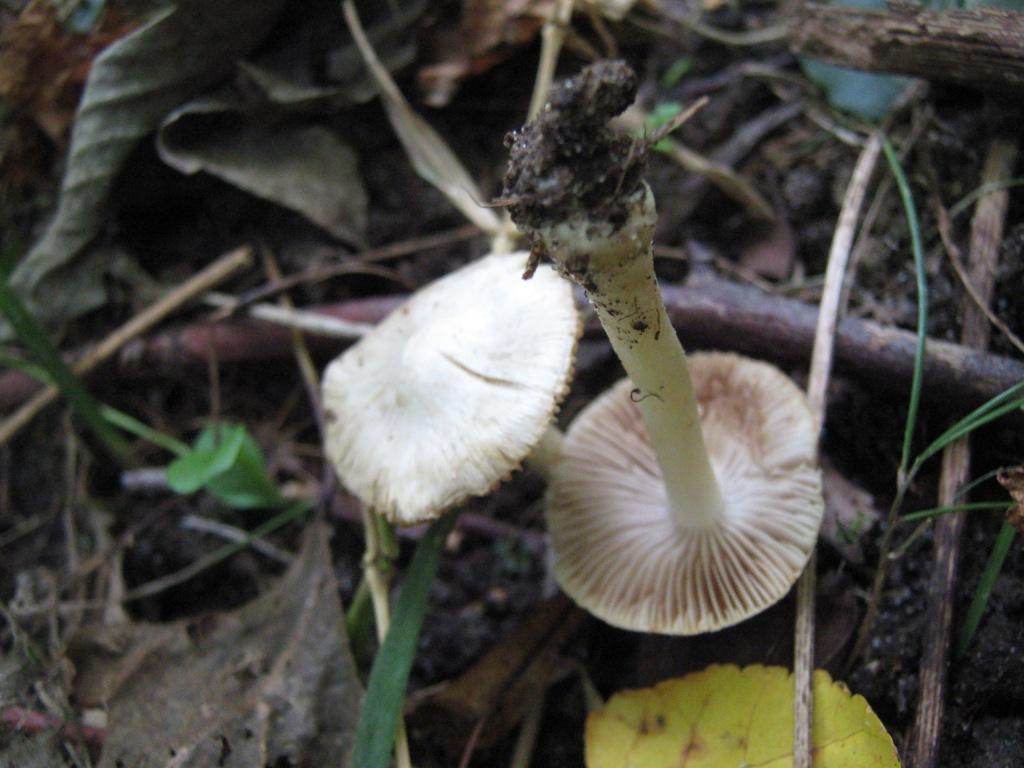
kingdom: Fungi
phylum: Basidiomycota
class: Agaricomycetes
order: Agaricales
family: Inocybaceae
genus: Inocybe
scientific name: Inocybe
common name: almindelig trævlhat
